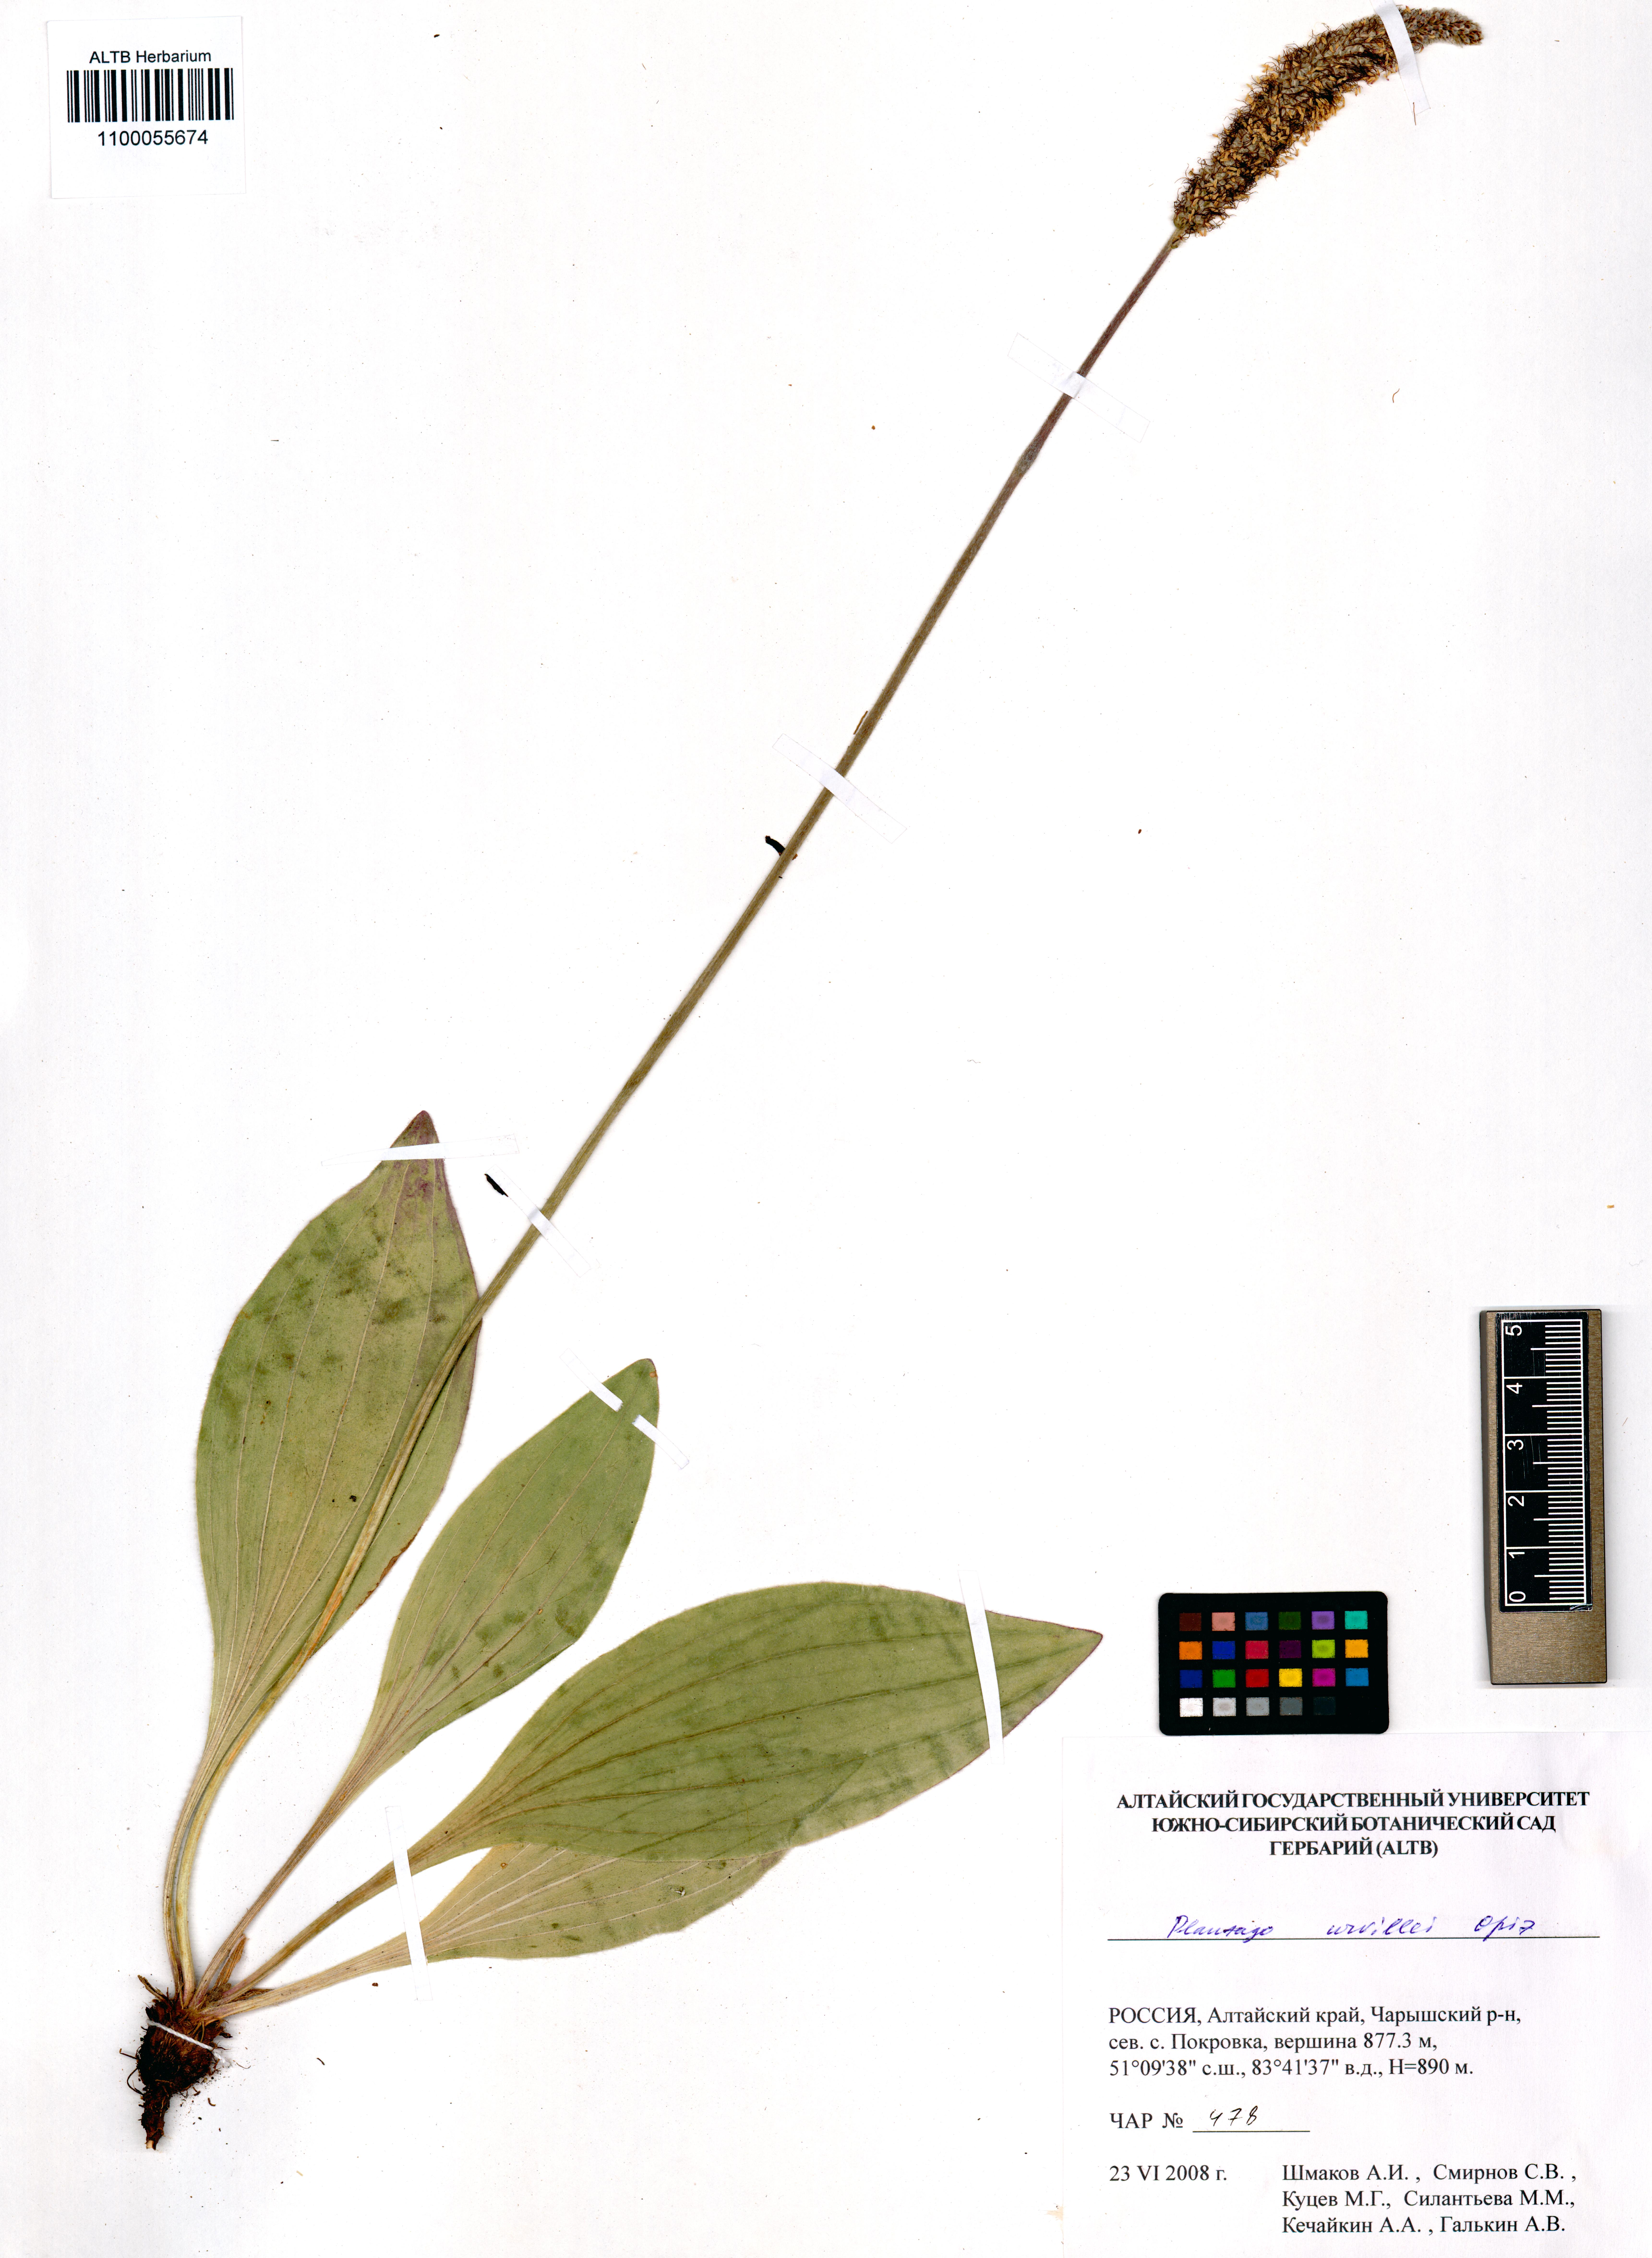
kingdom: Plantae
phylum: Tracheophyta
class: Magnoliopsida
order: Lamiales
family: Plantaginaceae
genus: Plantago
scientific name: Plantago urvillei
